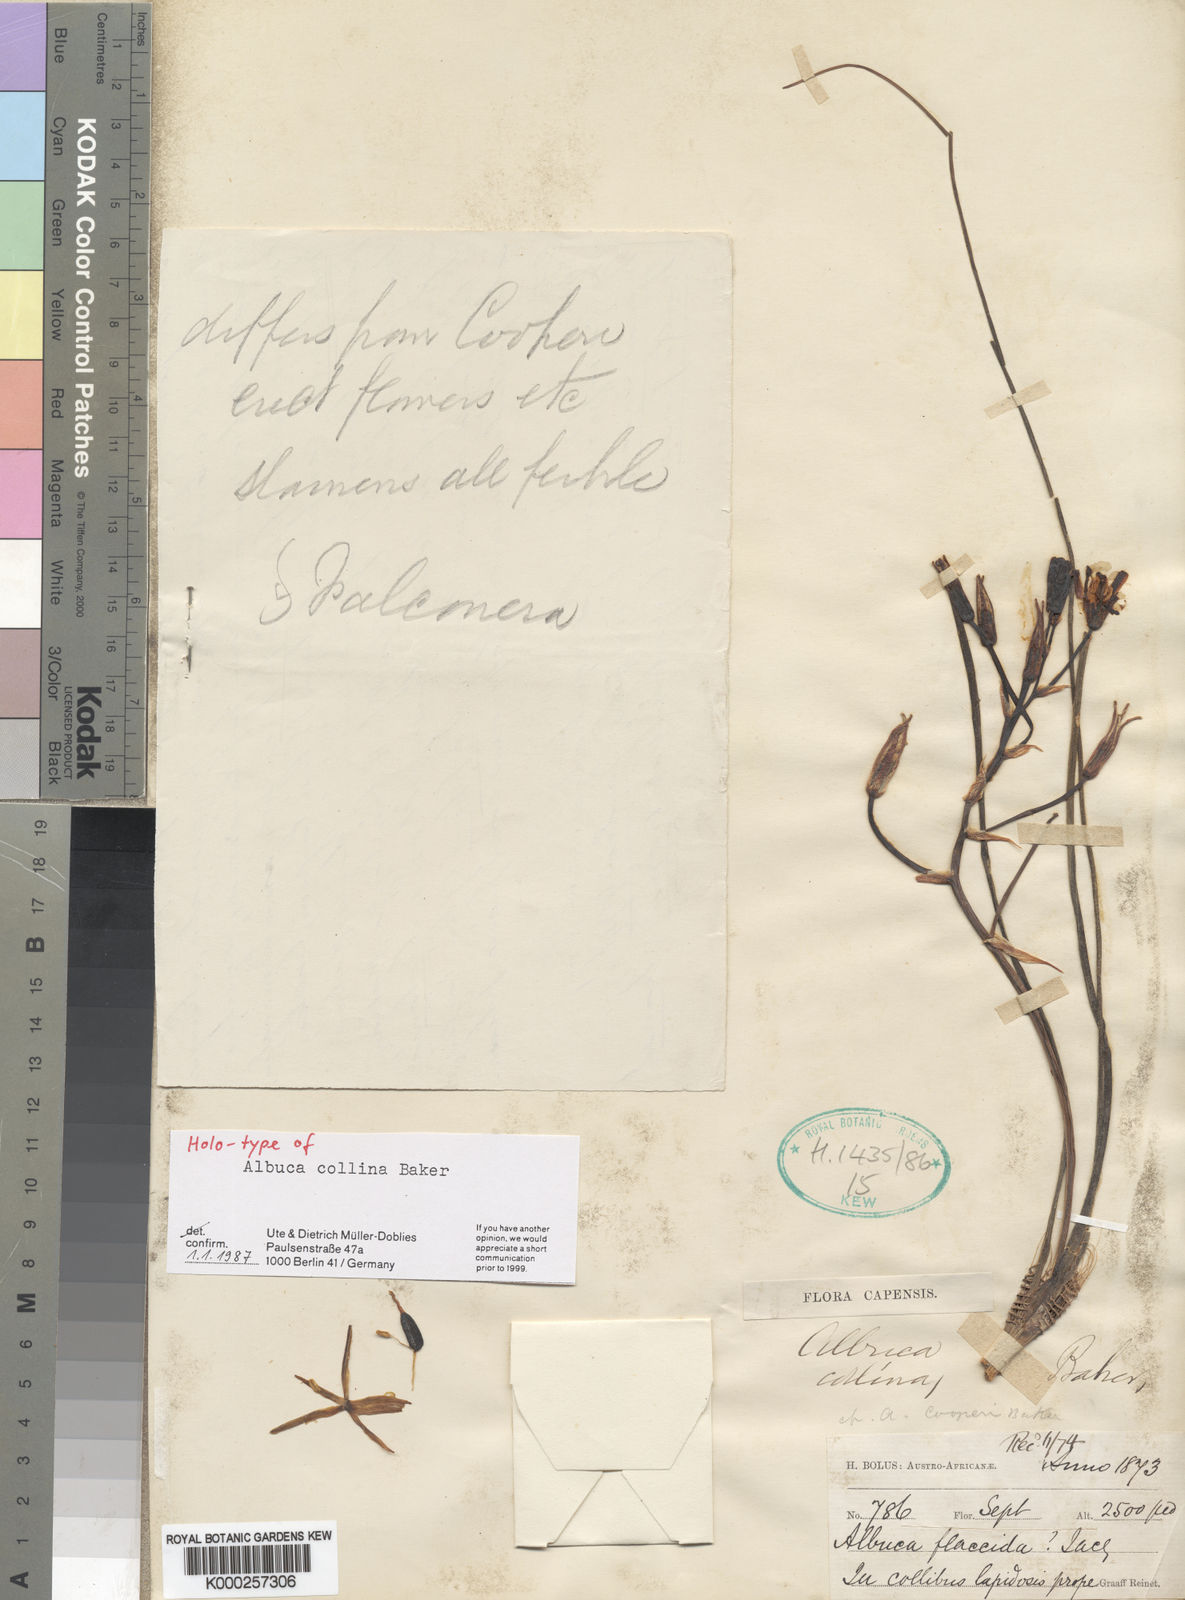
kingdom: Plantae
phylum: Tracheophyta
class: Liliopsida
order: Asparagales
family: Asparagaceae
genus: Albuca
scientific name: Albuca collina
